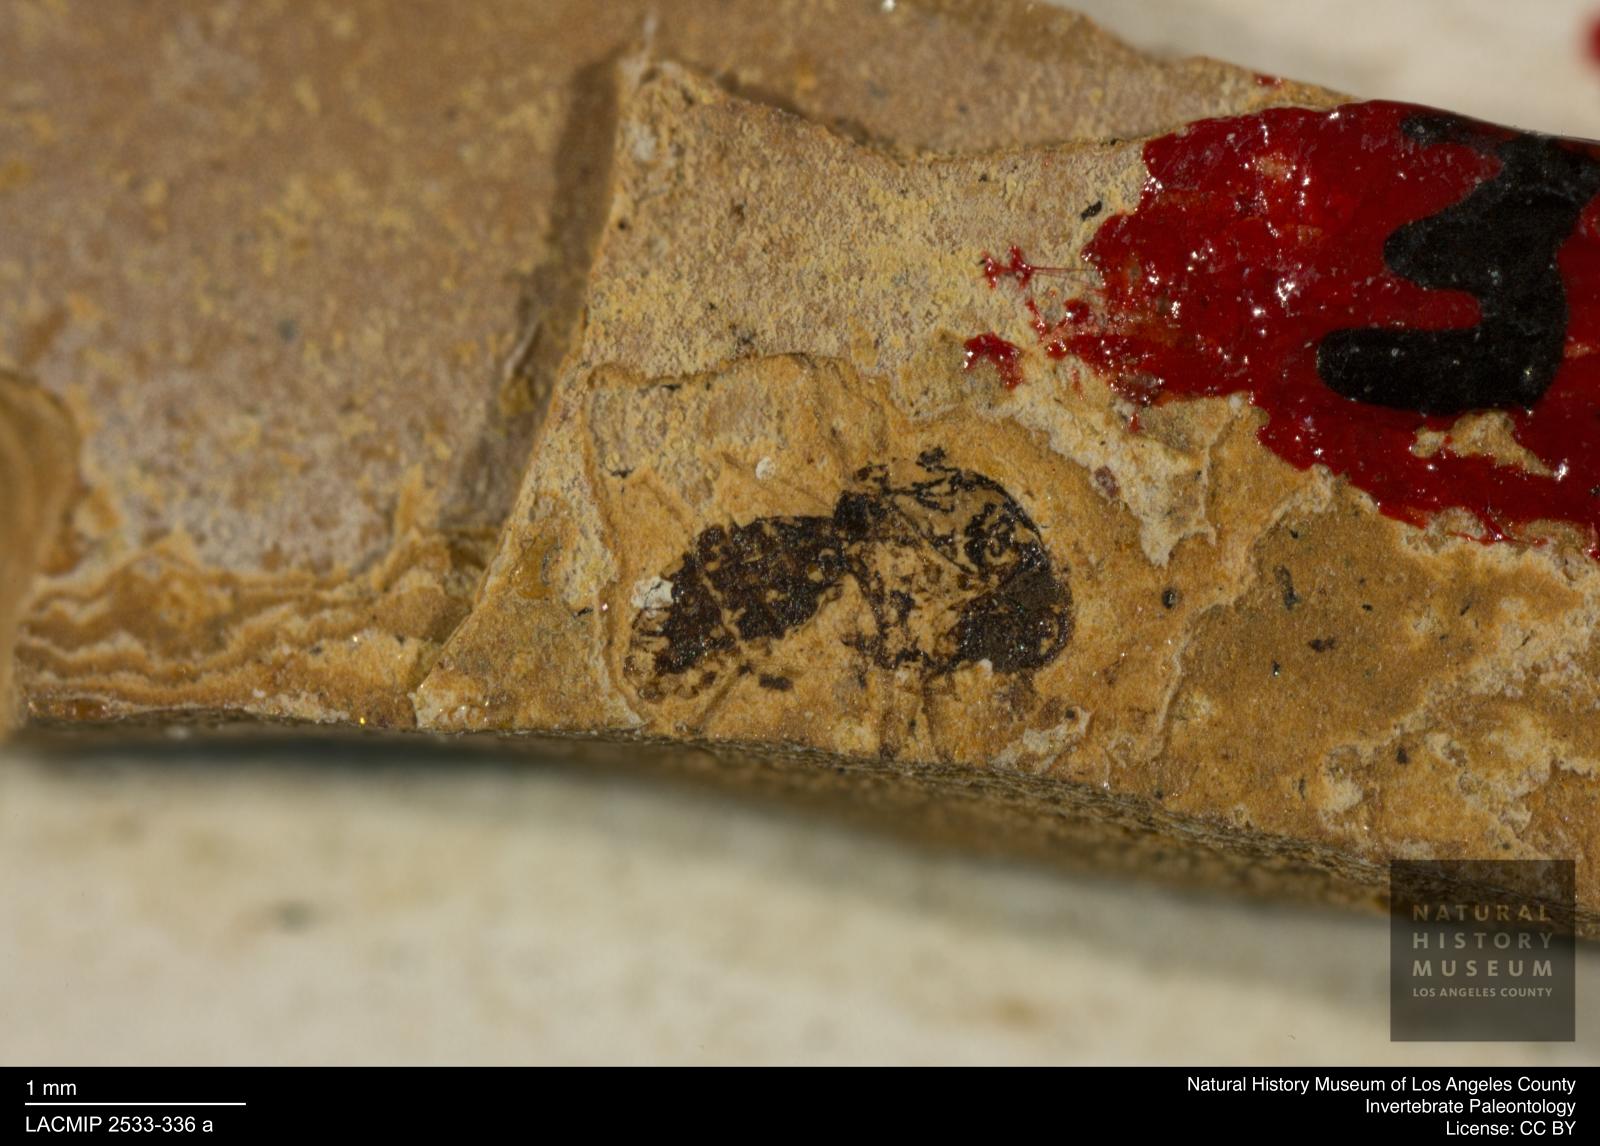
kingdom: Animalia
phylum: Arthropoda
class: Insecta
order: Diptera
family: Ceratopogonidae
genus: Culicoides
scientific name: Culicoides abbreviatipennis
